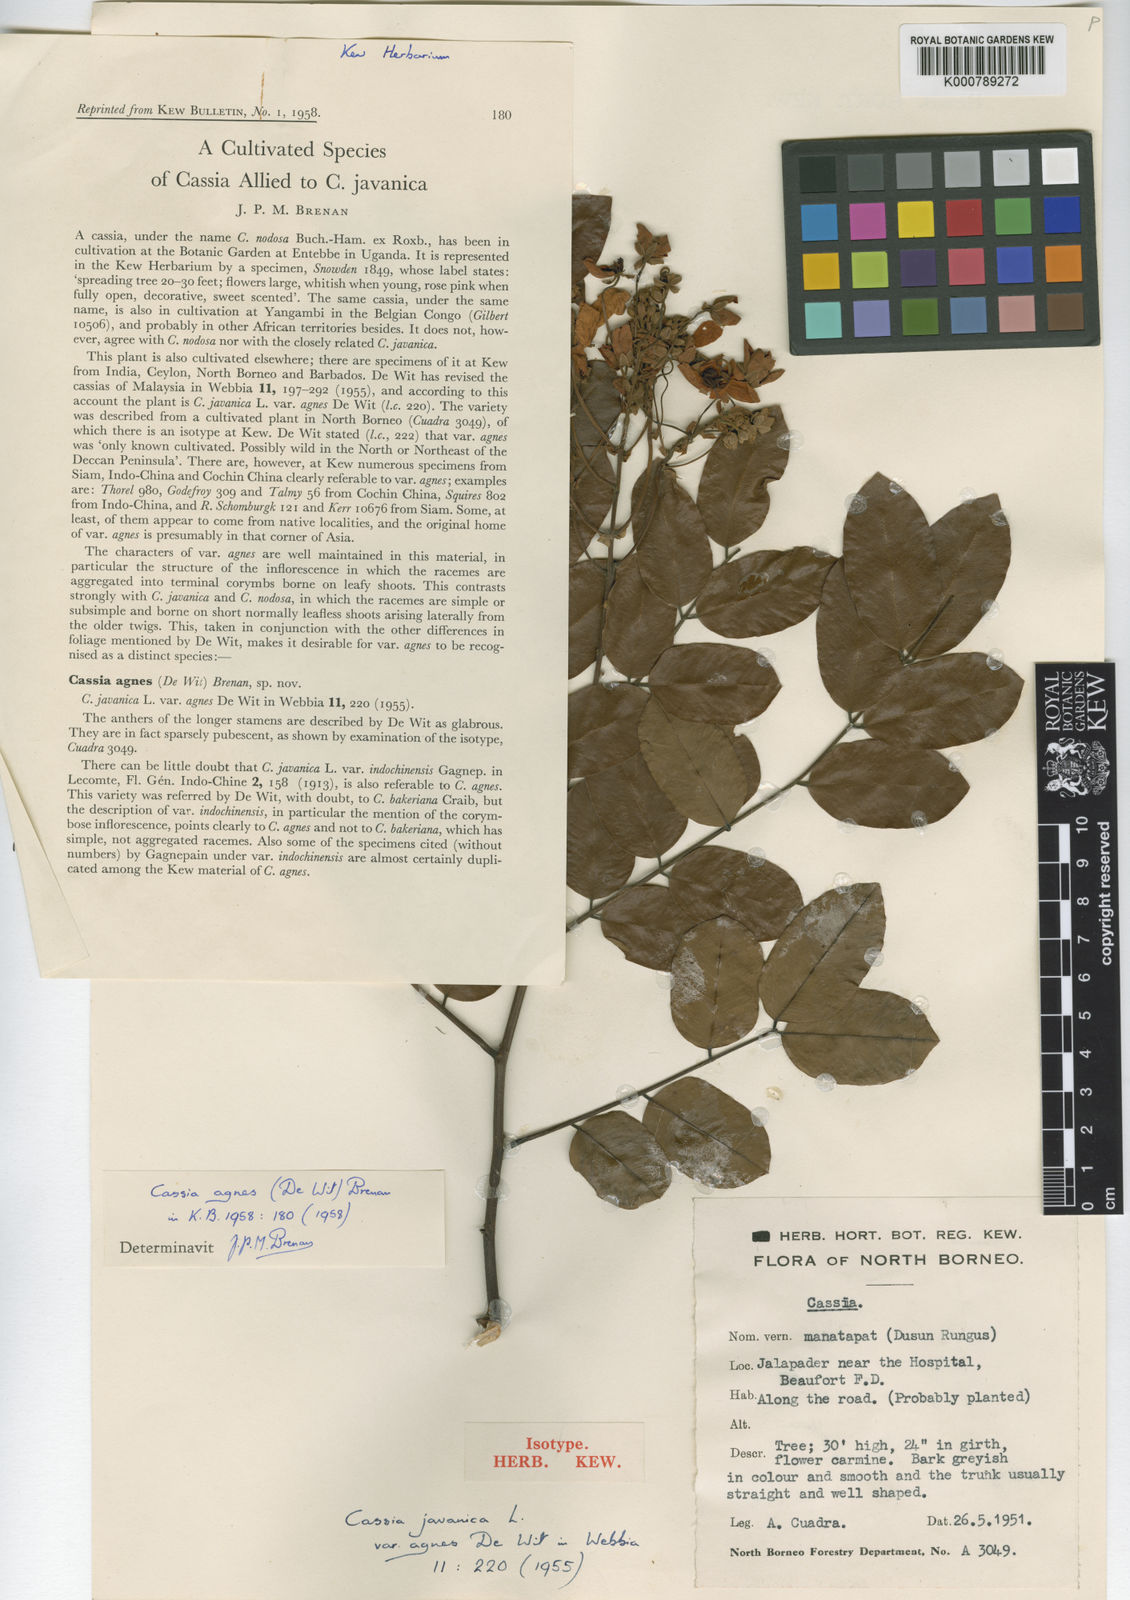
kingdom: Plantae
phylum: Tracheophyta
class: Magnoliopsida
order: Fabales
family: Fabaceae
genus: Cassia
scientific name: Cassia javanica
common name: Apple blossom
